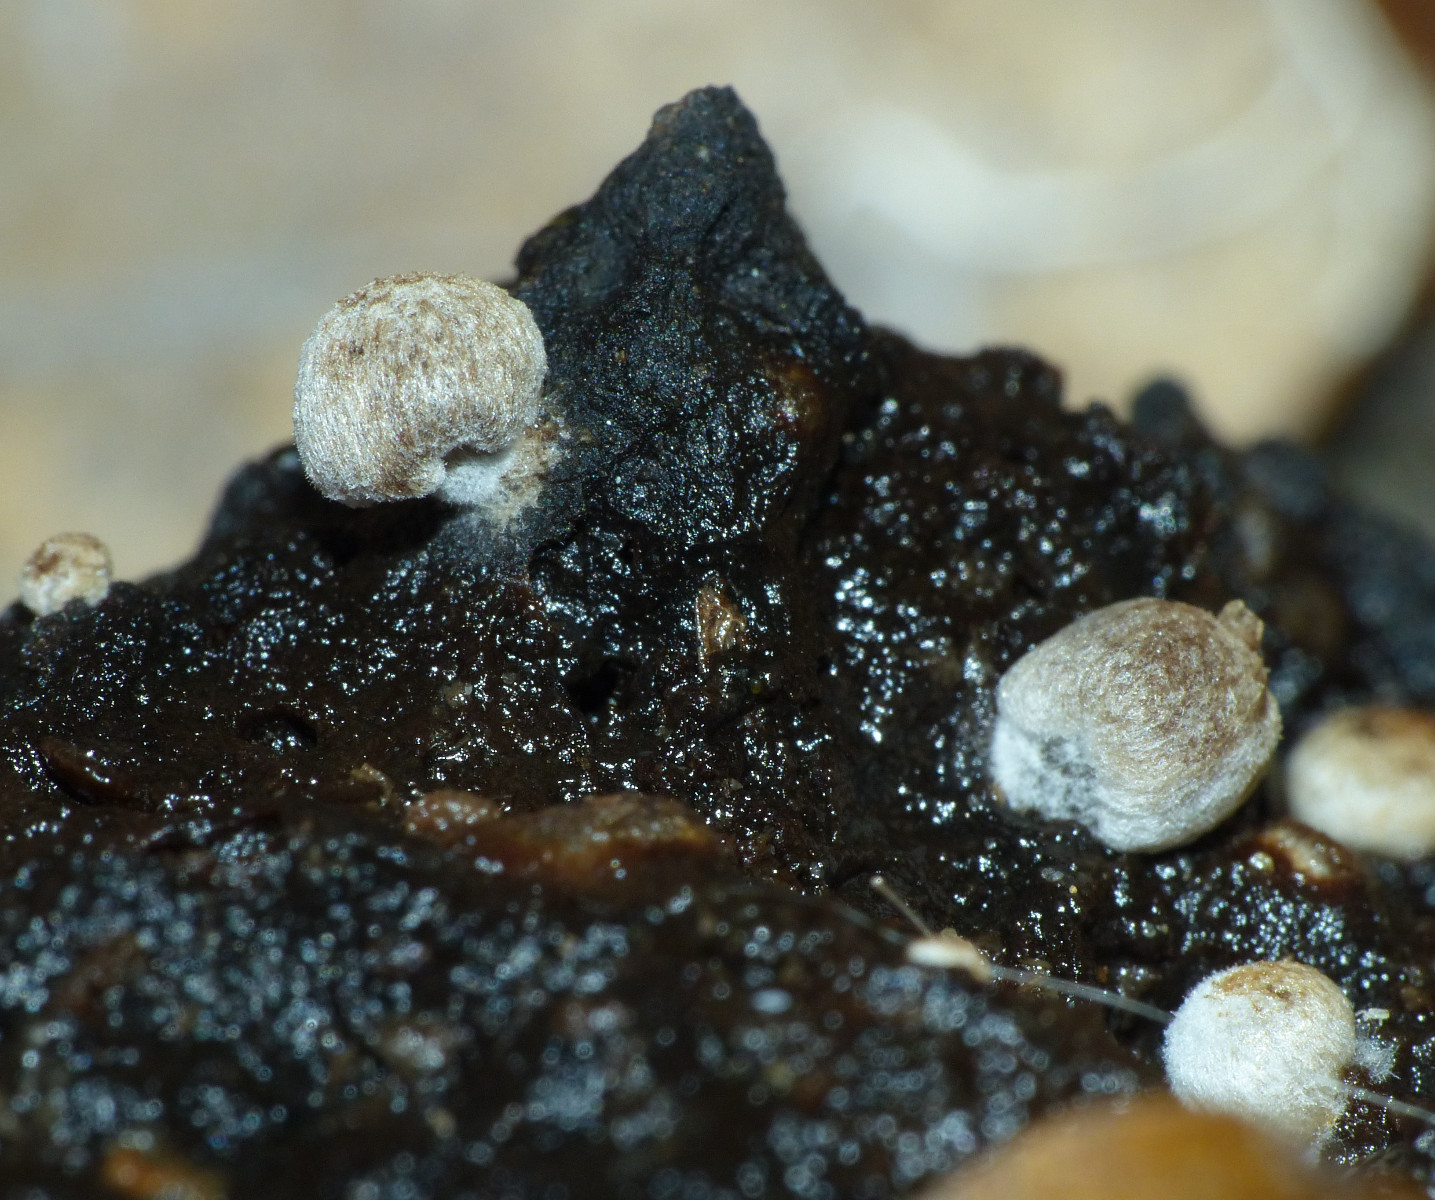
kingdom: Fungi
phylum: Basidiomycota
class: Agaricomycetes
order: Agaricales
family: Lyophyllaceae
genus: Asterophora
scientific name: Asterophora lycoperdoides
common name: brunpudret snyltehat
